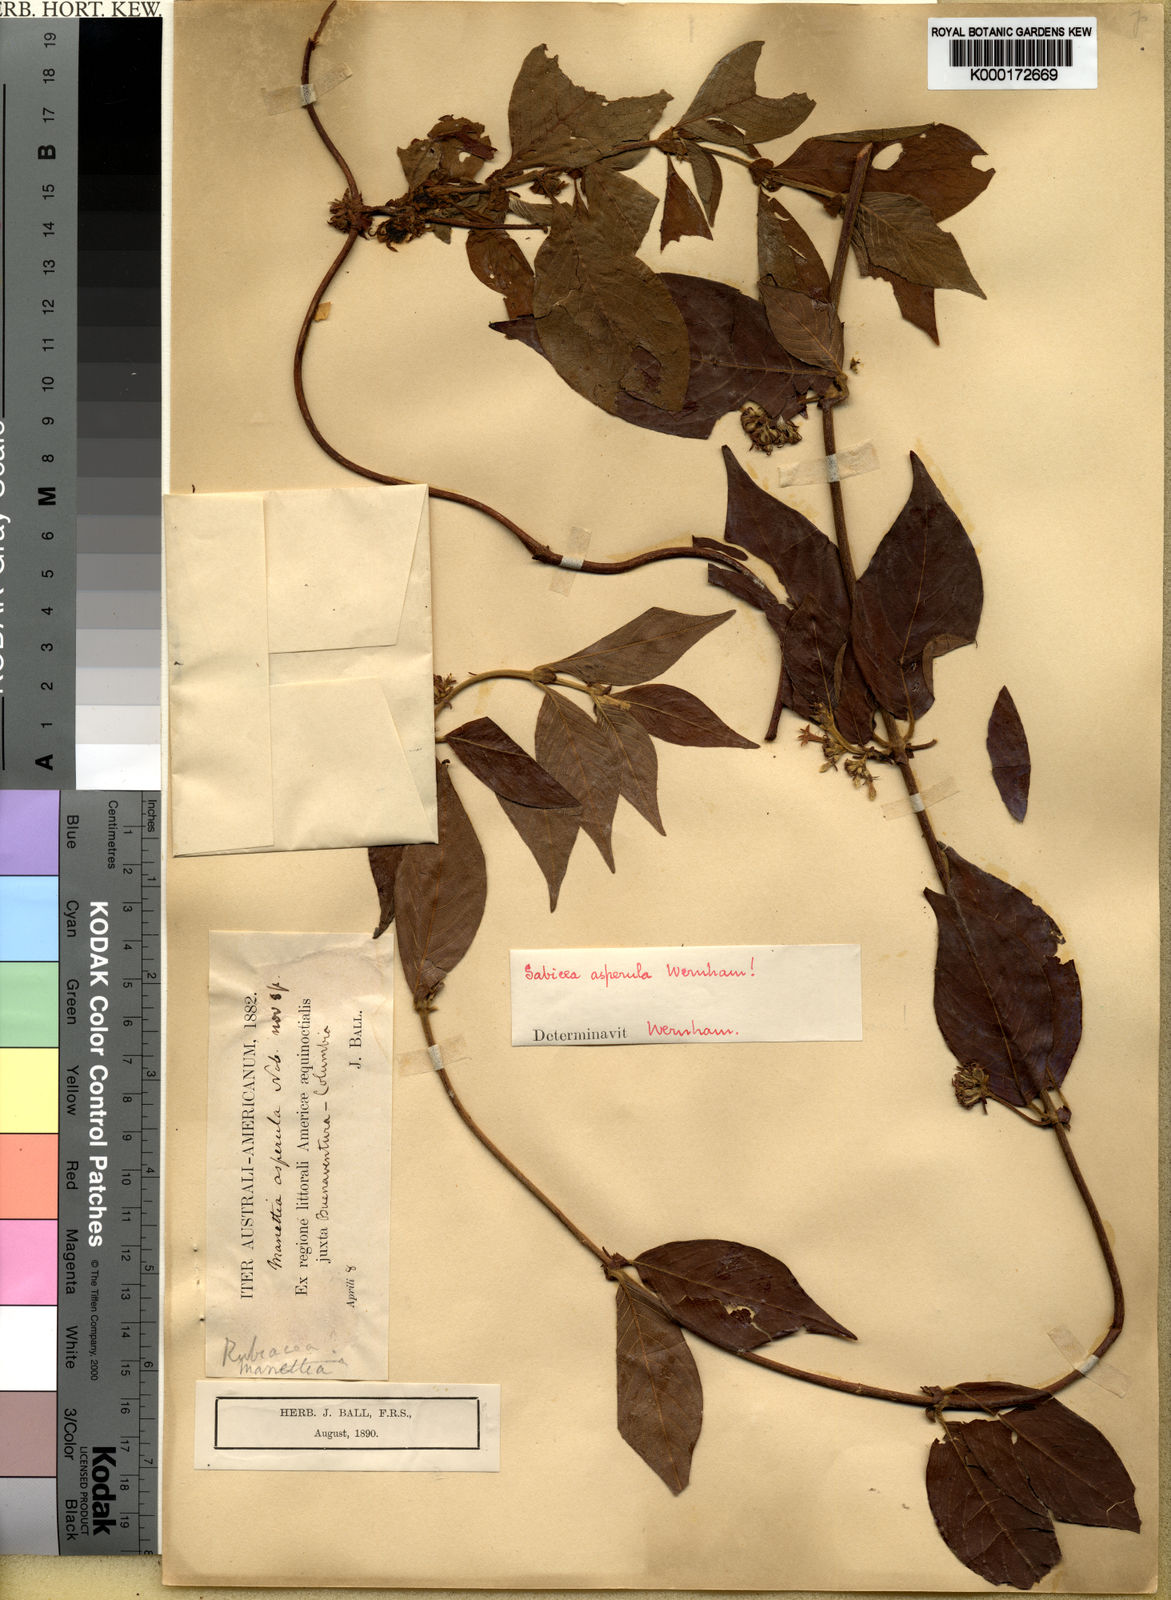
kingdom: Plantae
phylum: Tracheophyta
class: Magnoliopsida
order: Gentianales
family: Rubiaceae
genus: Sabicea
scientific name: Sabicea panamensis
